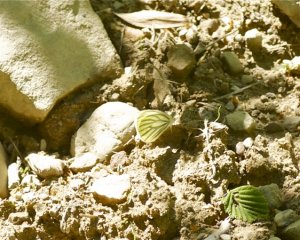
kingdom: Animalia
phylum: Arthropoda
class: Insecta
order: Lepidoptera
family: Pieridae
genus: Pieris
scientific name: Pieris oleracea
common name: Mustard White
